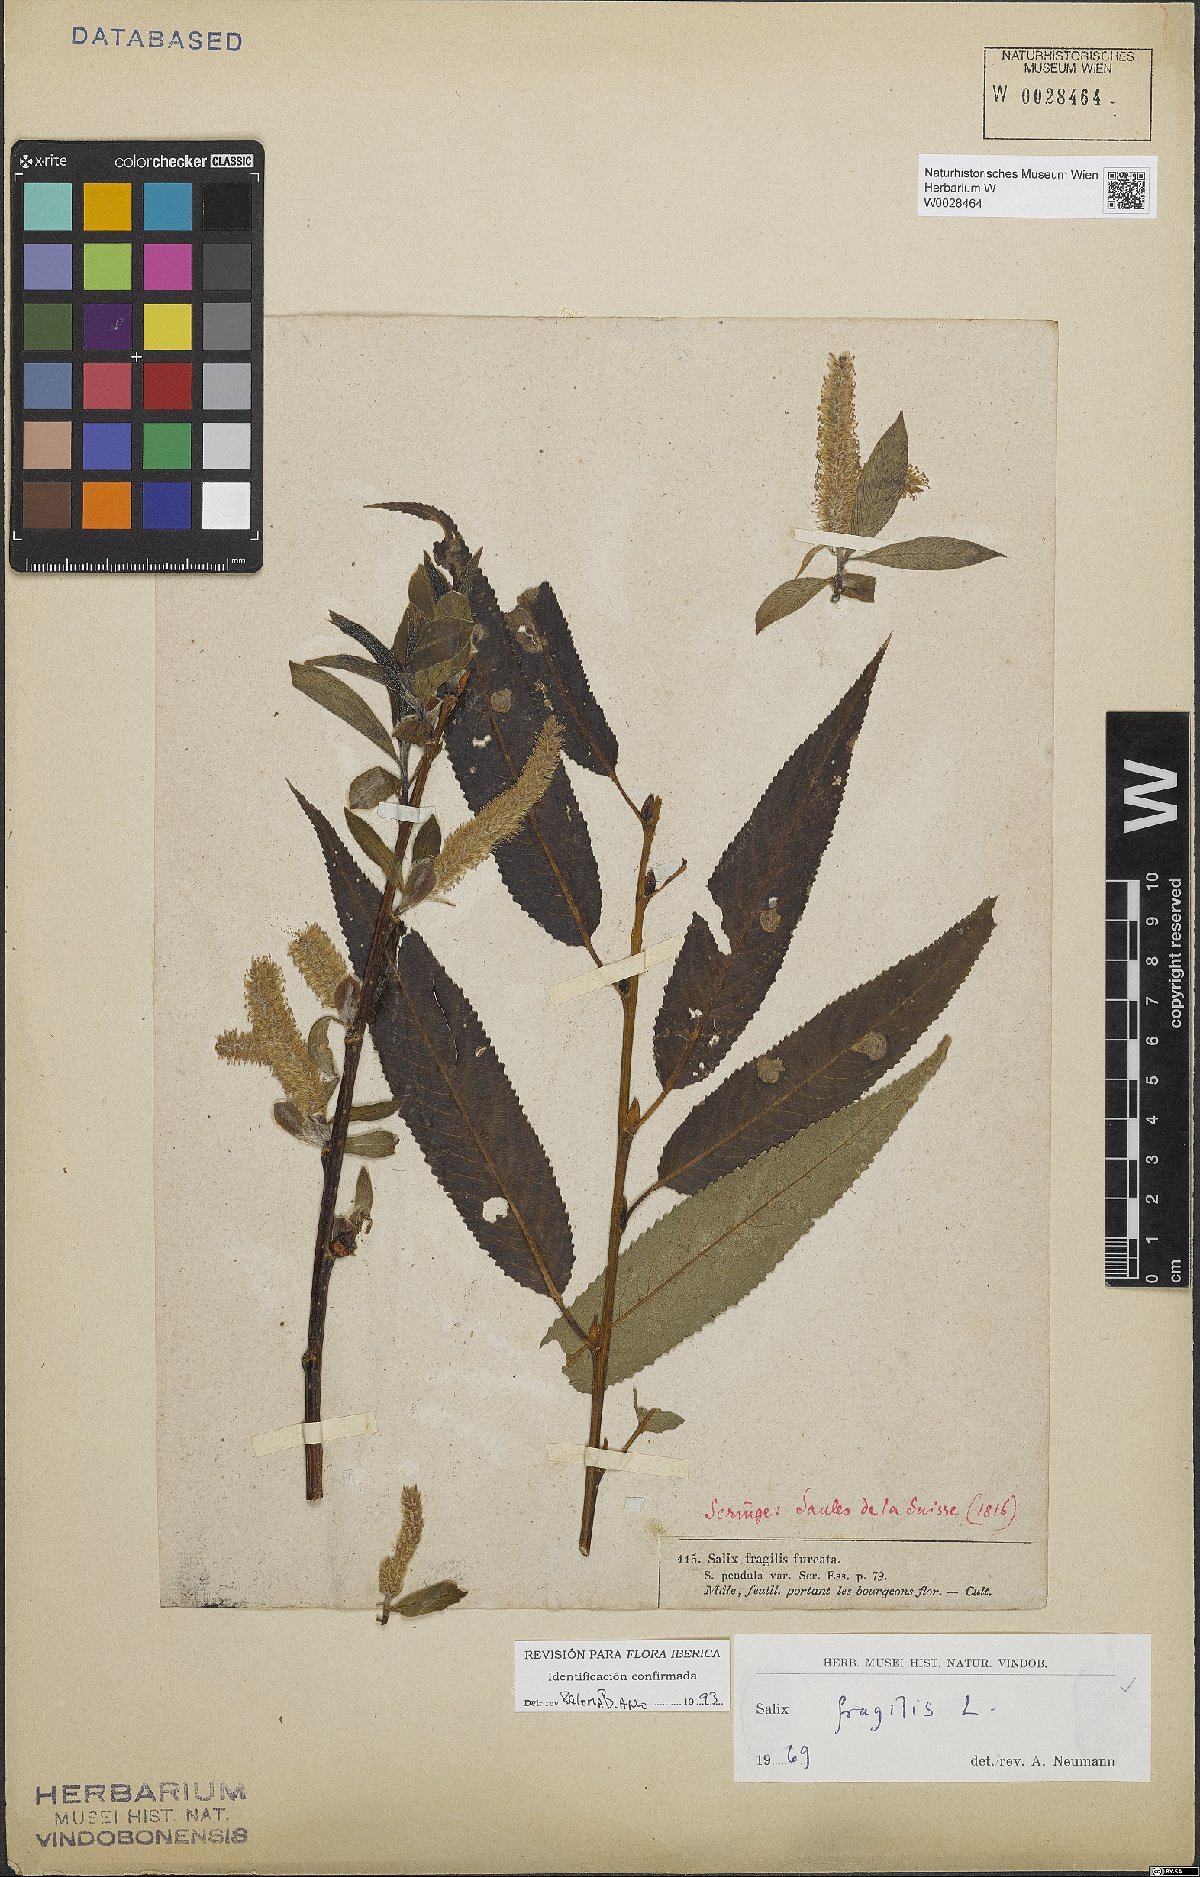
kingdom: Plantae
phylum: Tracheophyta
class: Magnoliopsida
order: Malpighiales
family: Salicaceae
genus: Salix
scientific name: Salix fragilis
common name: Crack willow
